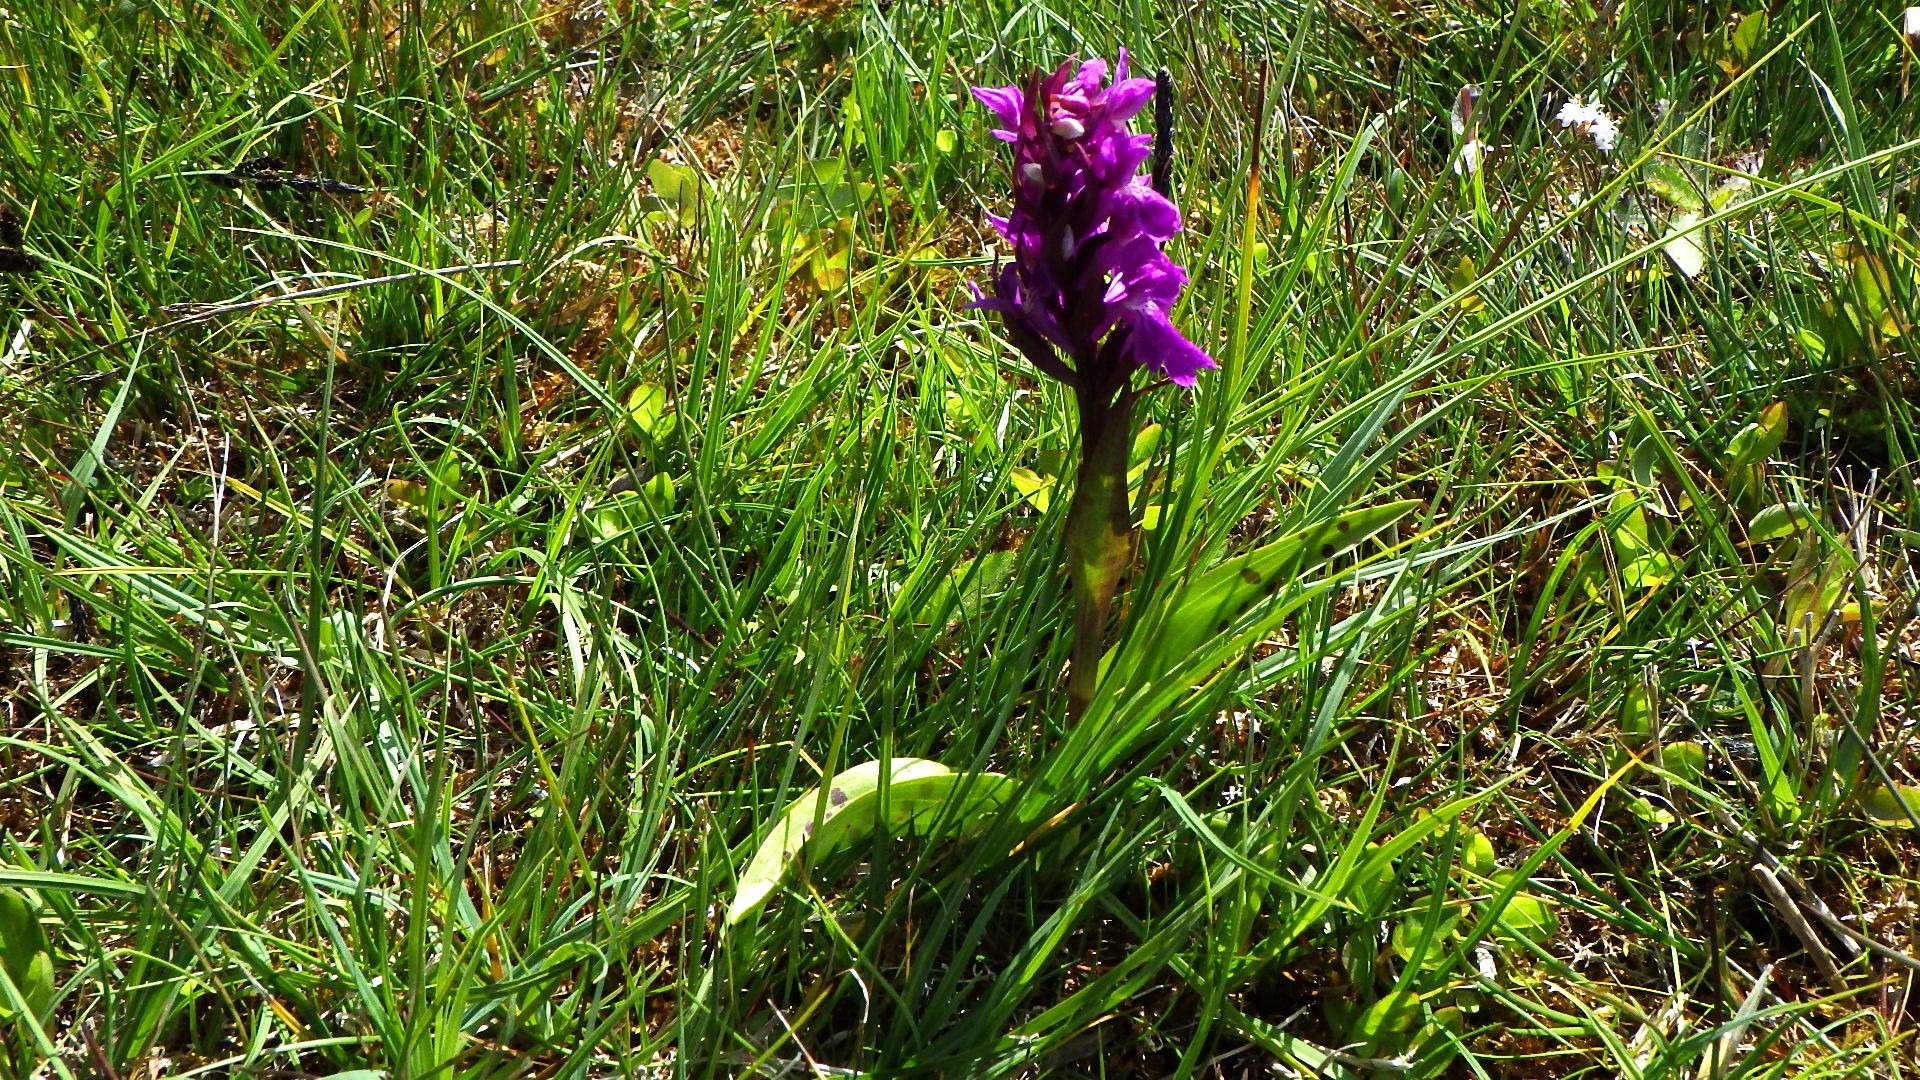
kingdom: Plantae
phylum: Tracheophyta
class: Liliopsida
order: Asparagales
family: Orchidaceae
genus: Dactylorhiza
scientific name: Dactylorhiza majalis
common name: Maj-gøgeurt
